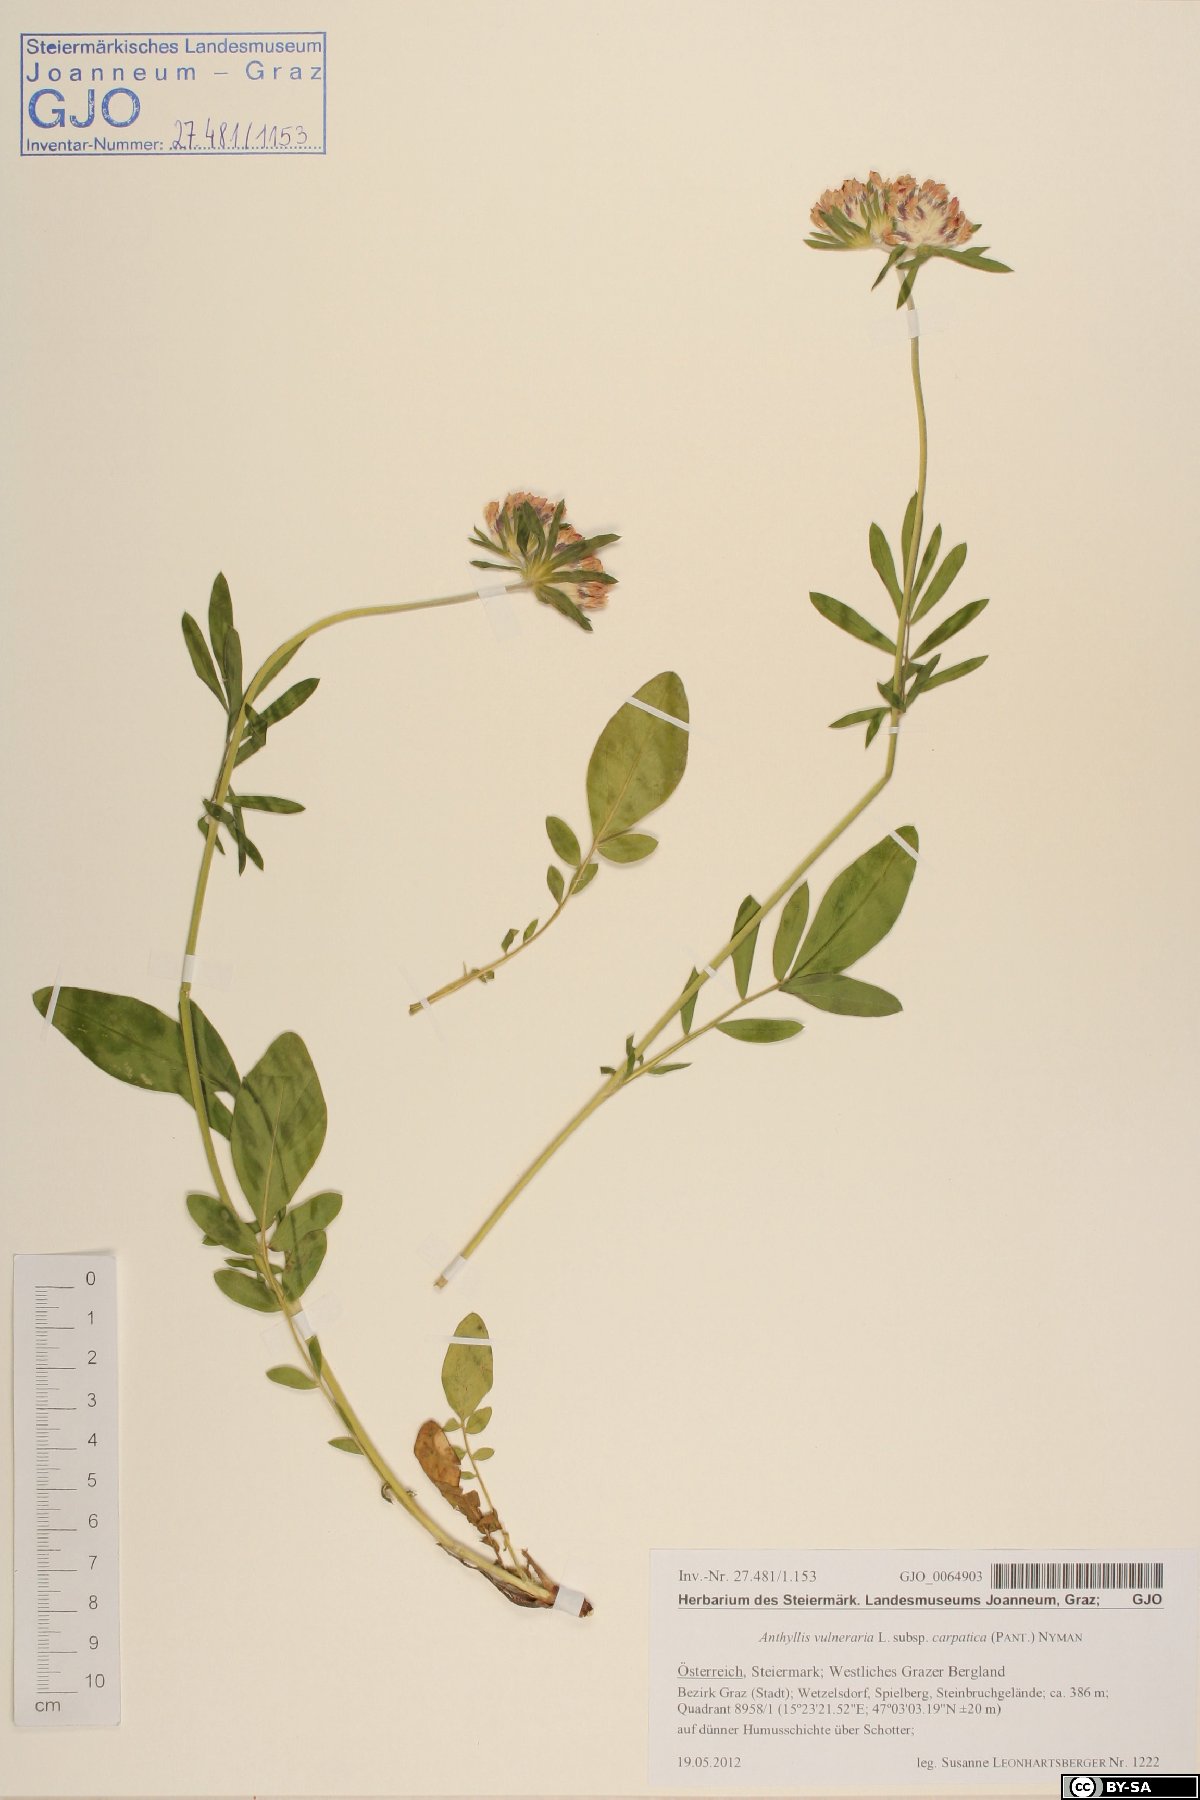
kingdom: Plantae
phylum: Tracheophyta
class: Magnoliopsida
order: Fabales
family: Fabaceae
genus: Anthyllis
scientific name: Anthyllis vulneraria
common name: Kidney vetch
